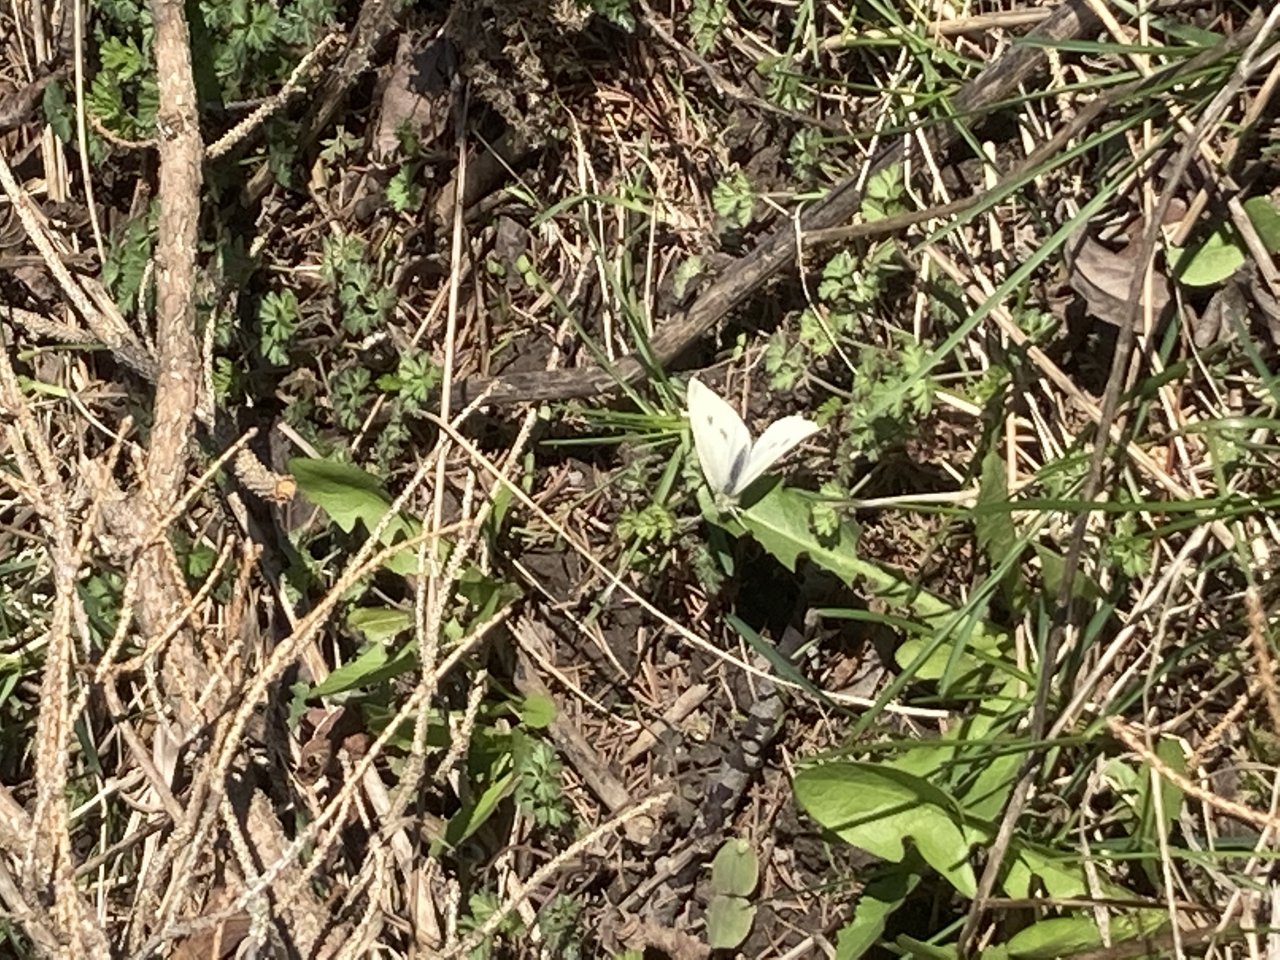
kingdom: Animalia
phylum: Arthropoda
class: Insecta
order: Lepidoptera
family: Pieridae
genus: Pieris
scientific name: Pieris rapae
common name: Cabbage White
